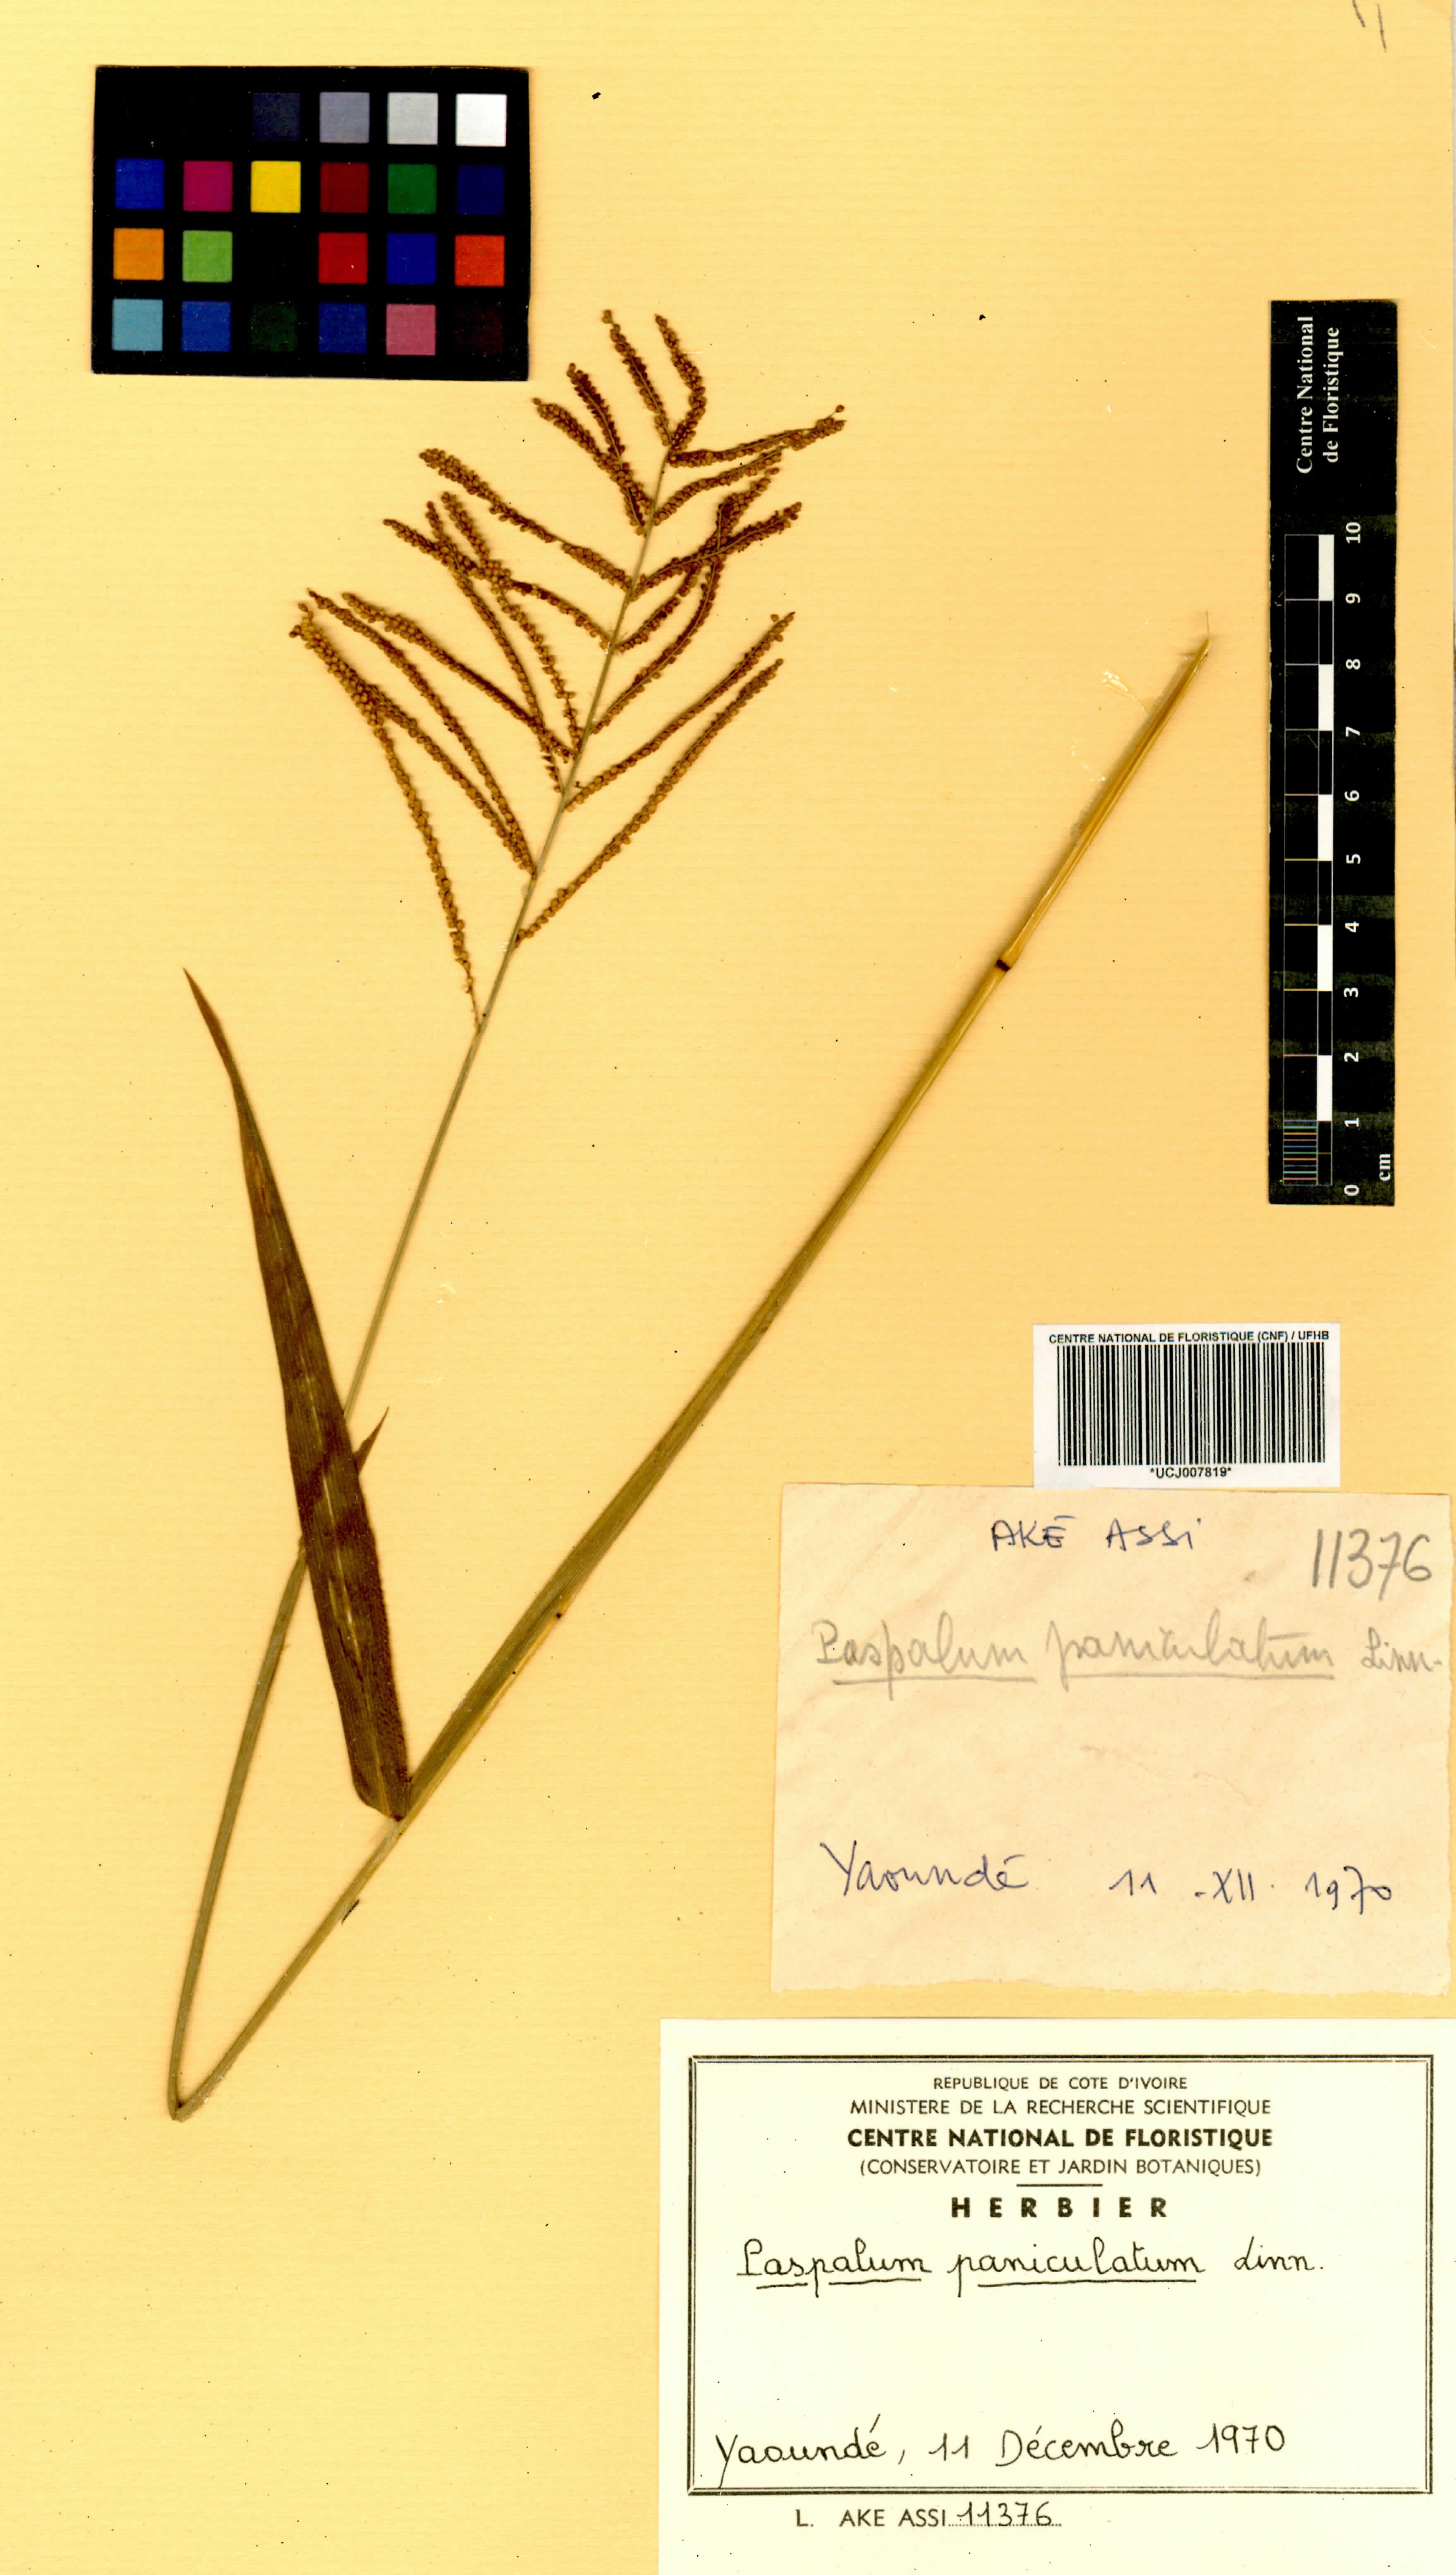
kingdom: Plantae
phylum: Tracheophyta
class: Liliopsida
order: Poales
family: Poaceae
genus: Paspalum
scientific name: Paspalum paniculatum
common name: Arrocillo
